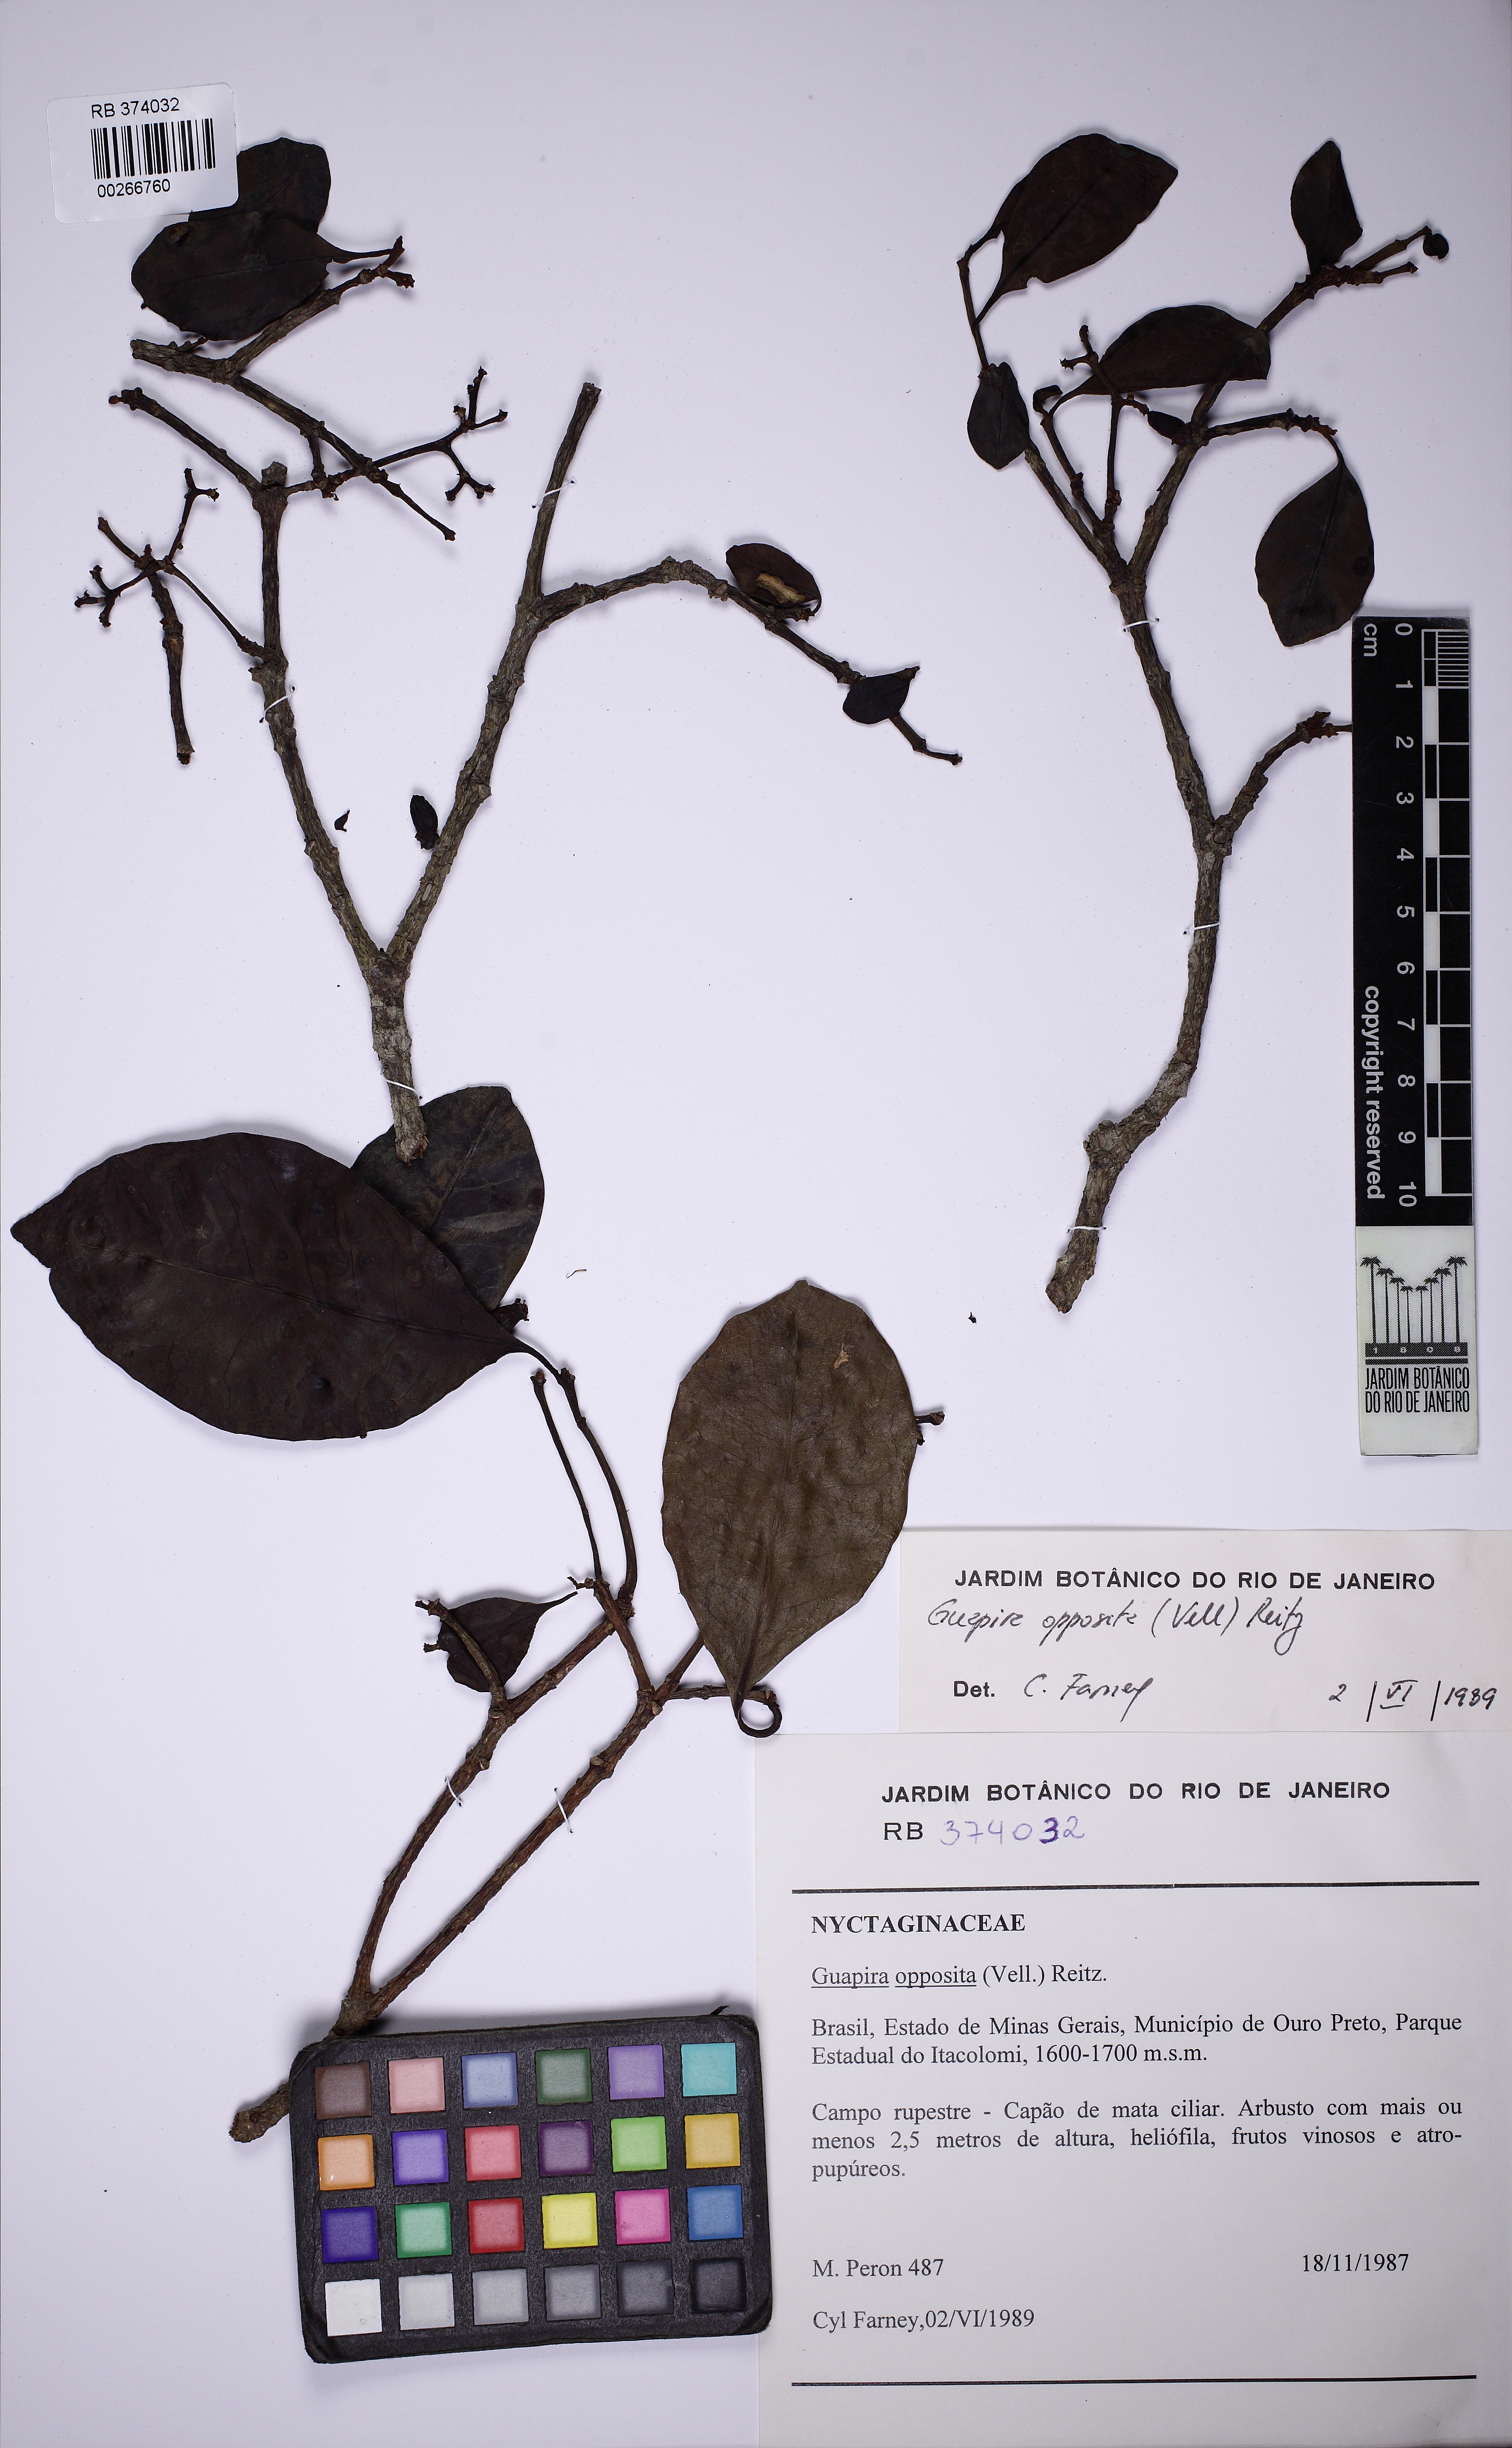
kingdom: Plantae
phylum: Tracheophyta
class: Magnoliopsida
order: Caryophyllales
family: Nyctaginaceae
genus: Guapira
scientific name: Guapira opposita
